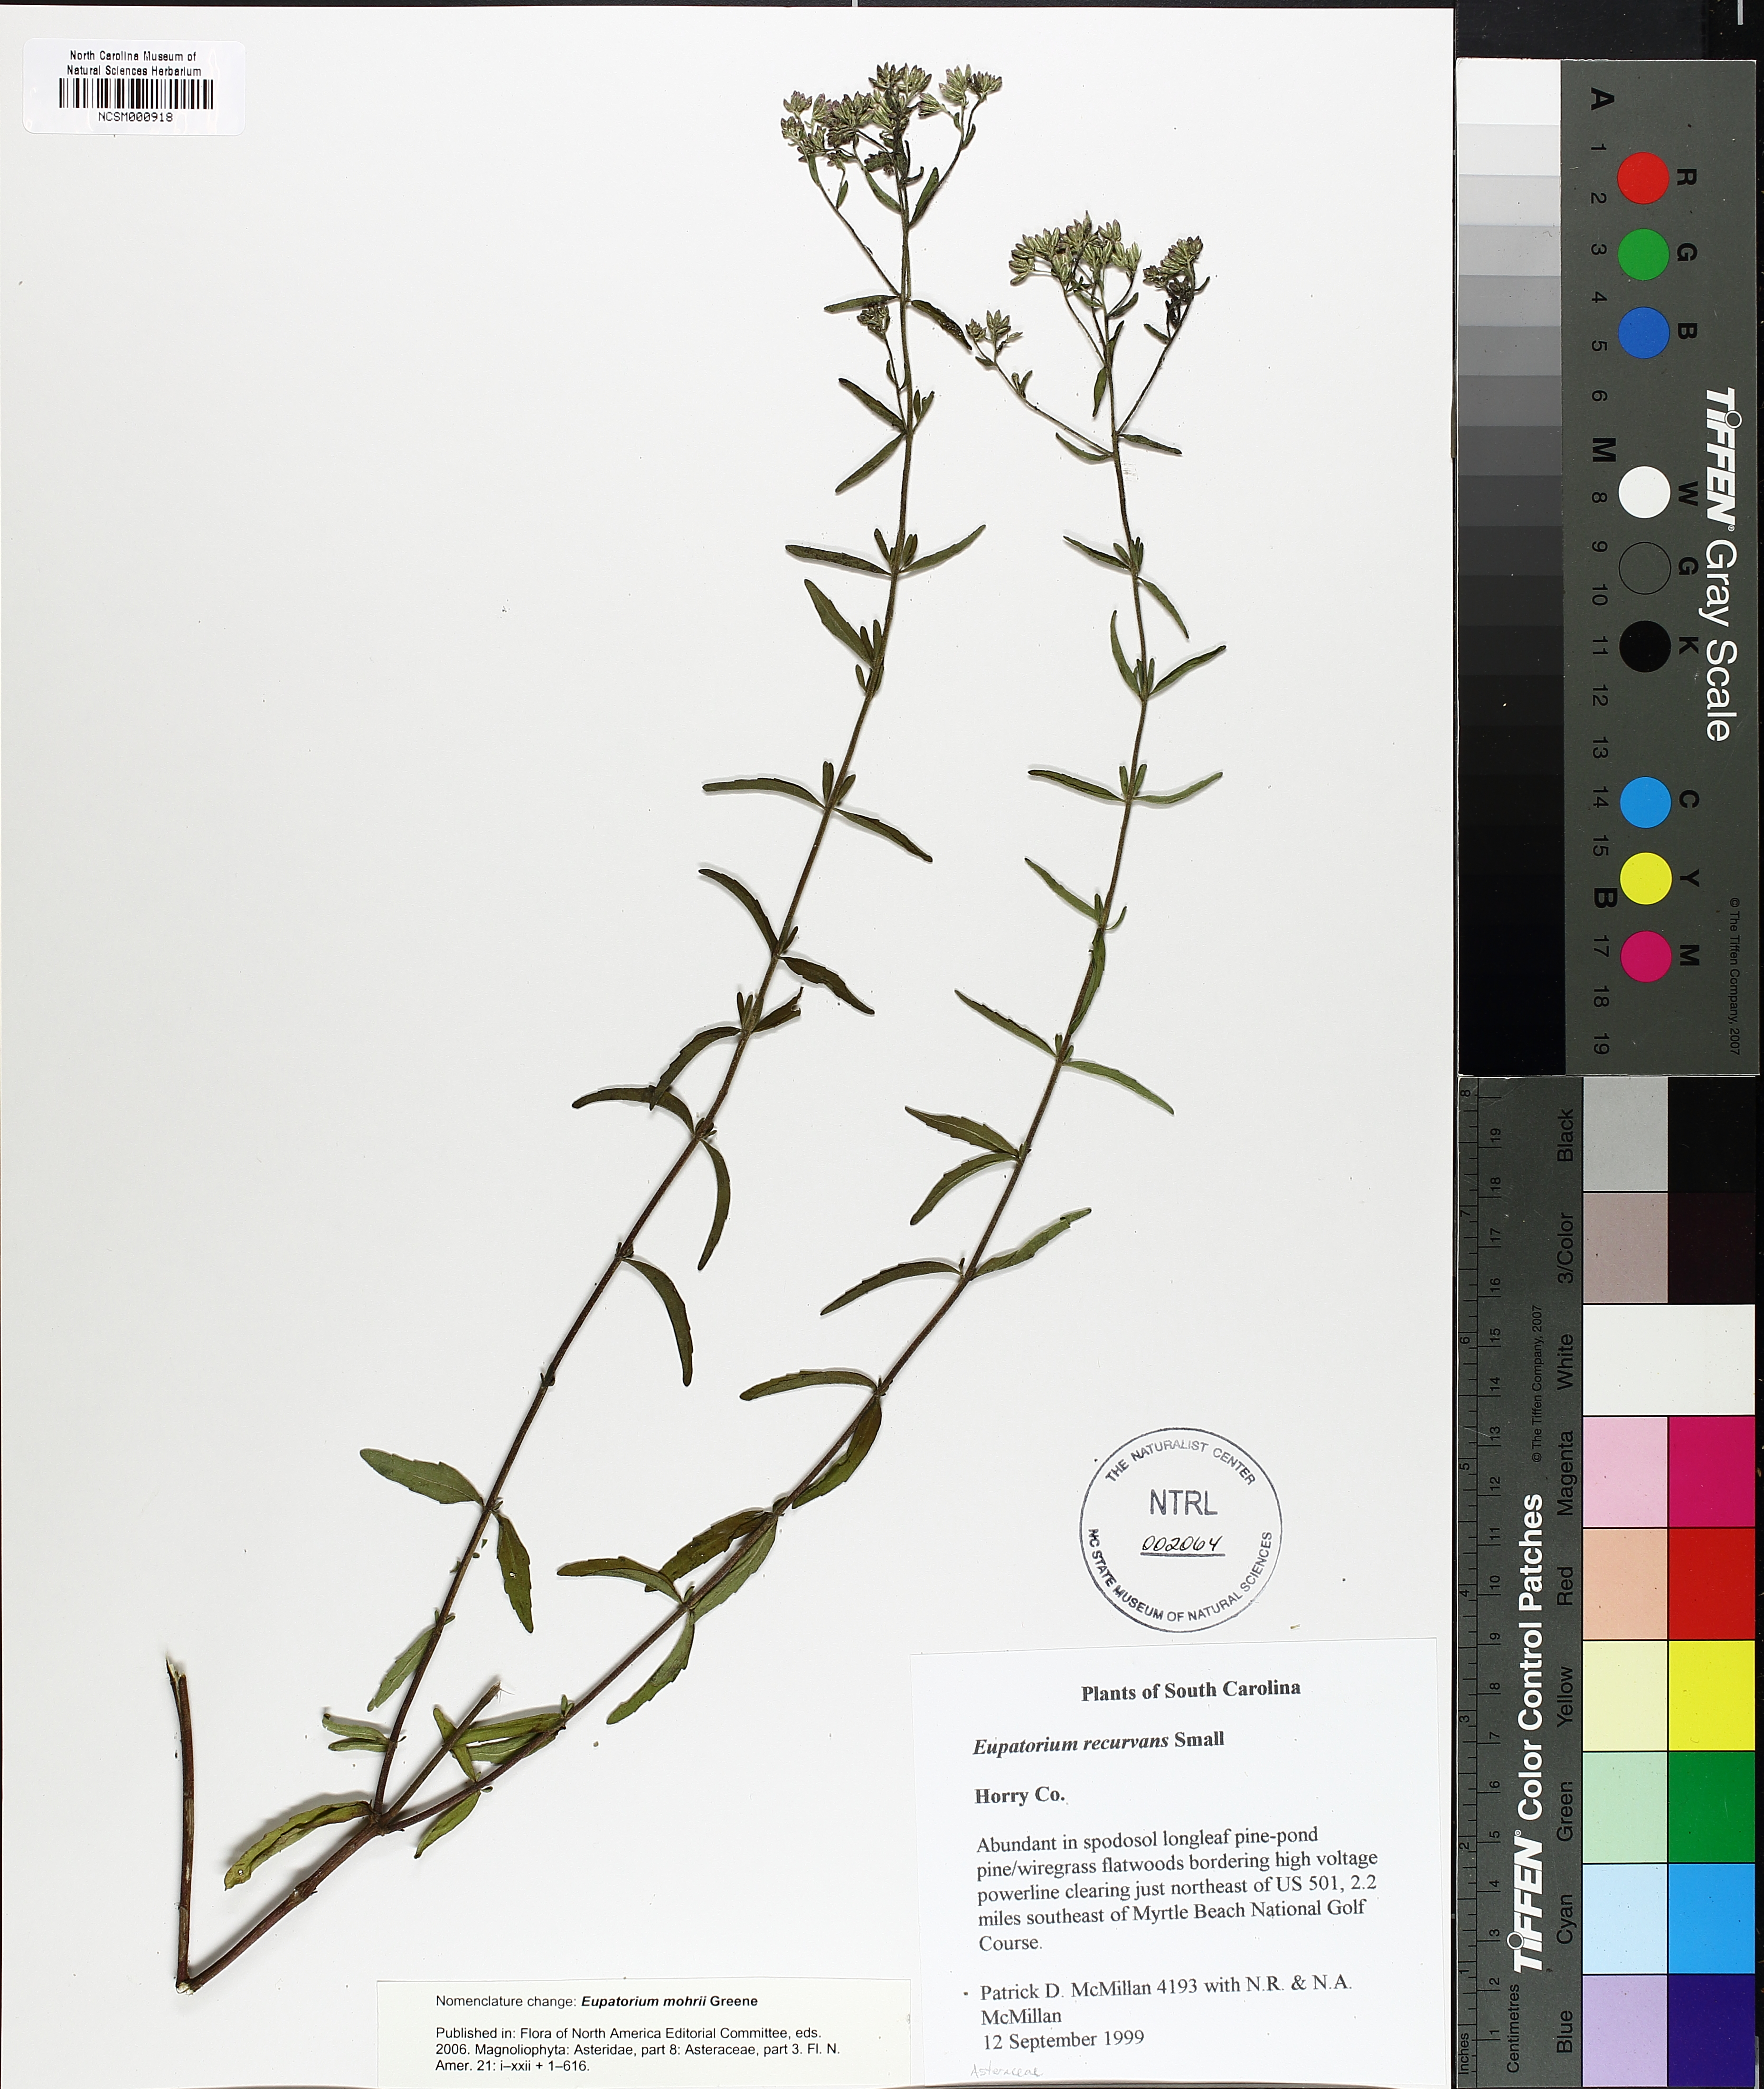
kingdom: Plantae
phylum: Tracheophyta
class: Magnoliopsida
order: Asterales
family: Asteraceae
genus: Eupatorium
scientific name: Eupatorium mohrii
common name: Mohr's thoroughwort
